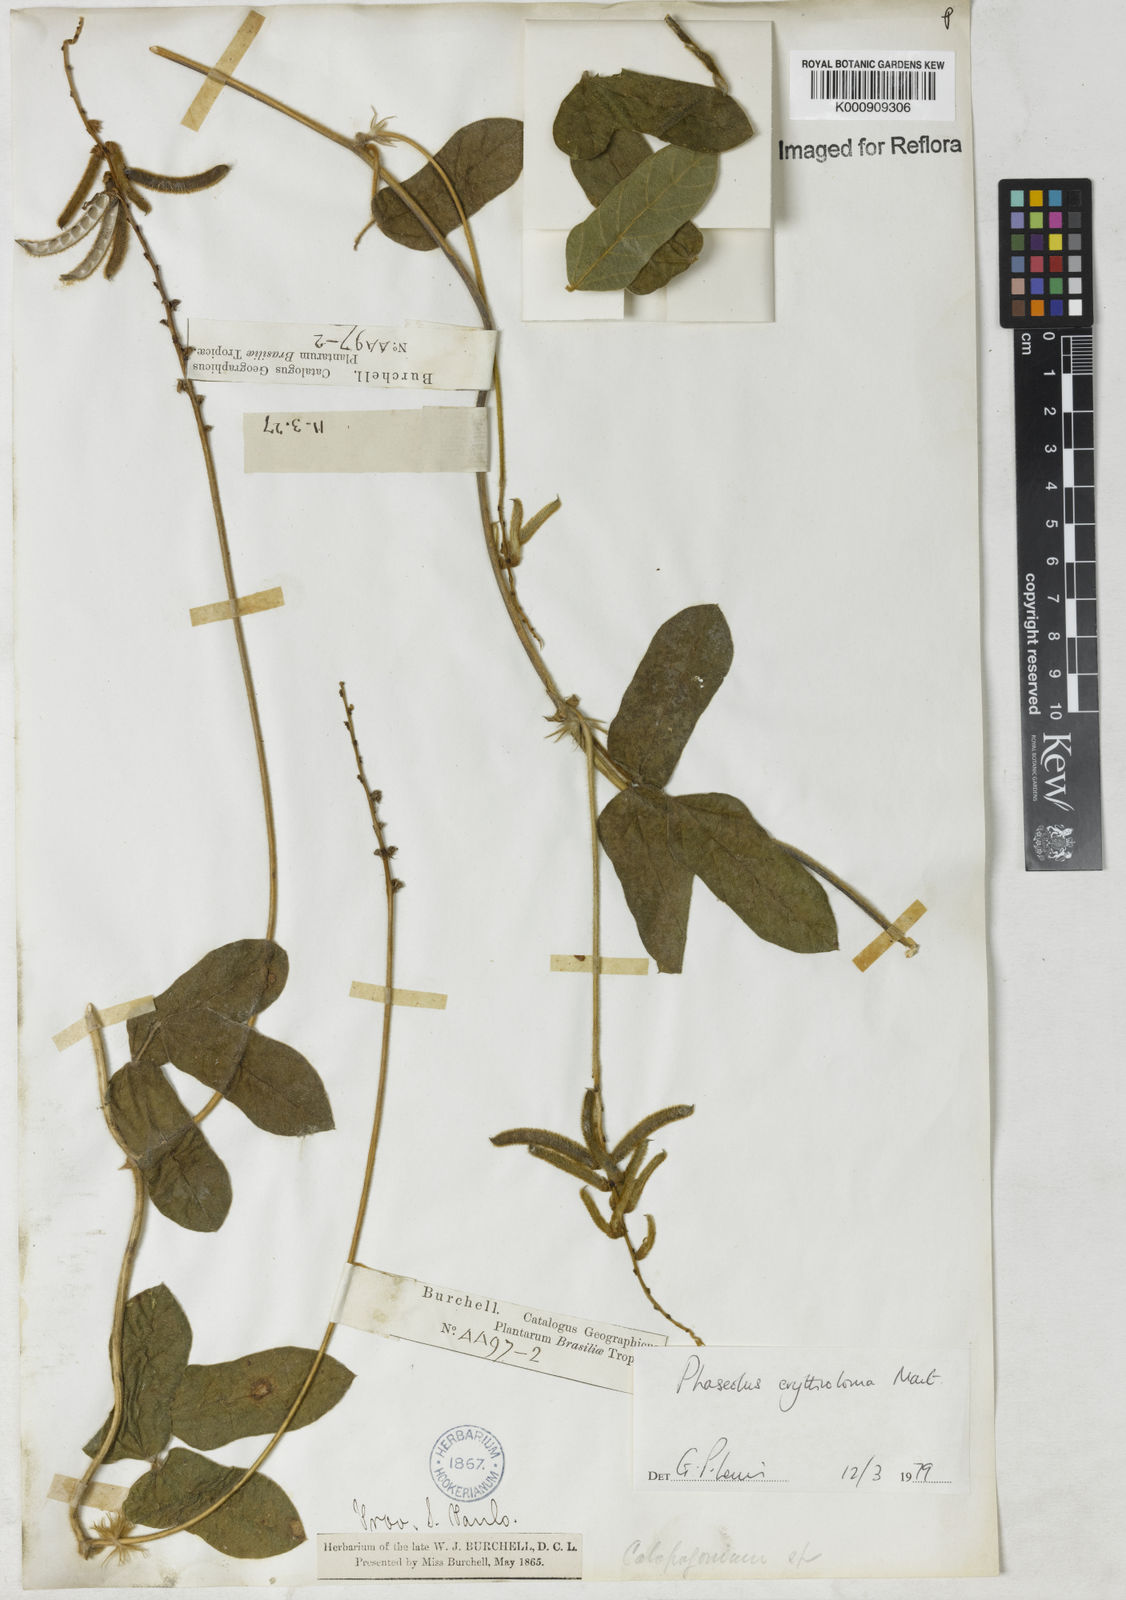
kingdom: Plantae
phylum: Tracheophyta
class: Magnoliopsida
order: Fabales
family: Fabaceae
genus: Macroptilium
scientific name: Macroptilium erythroloma
